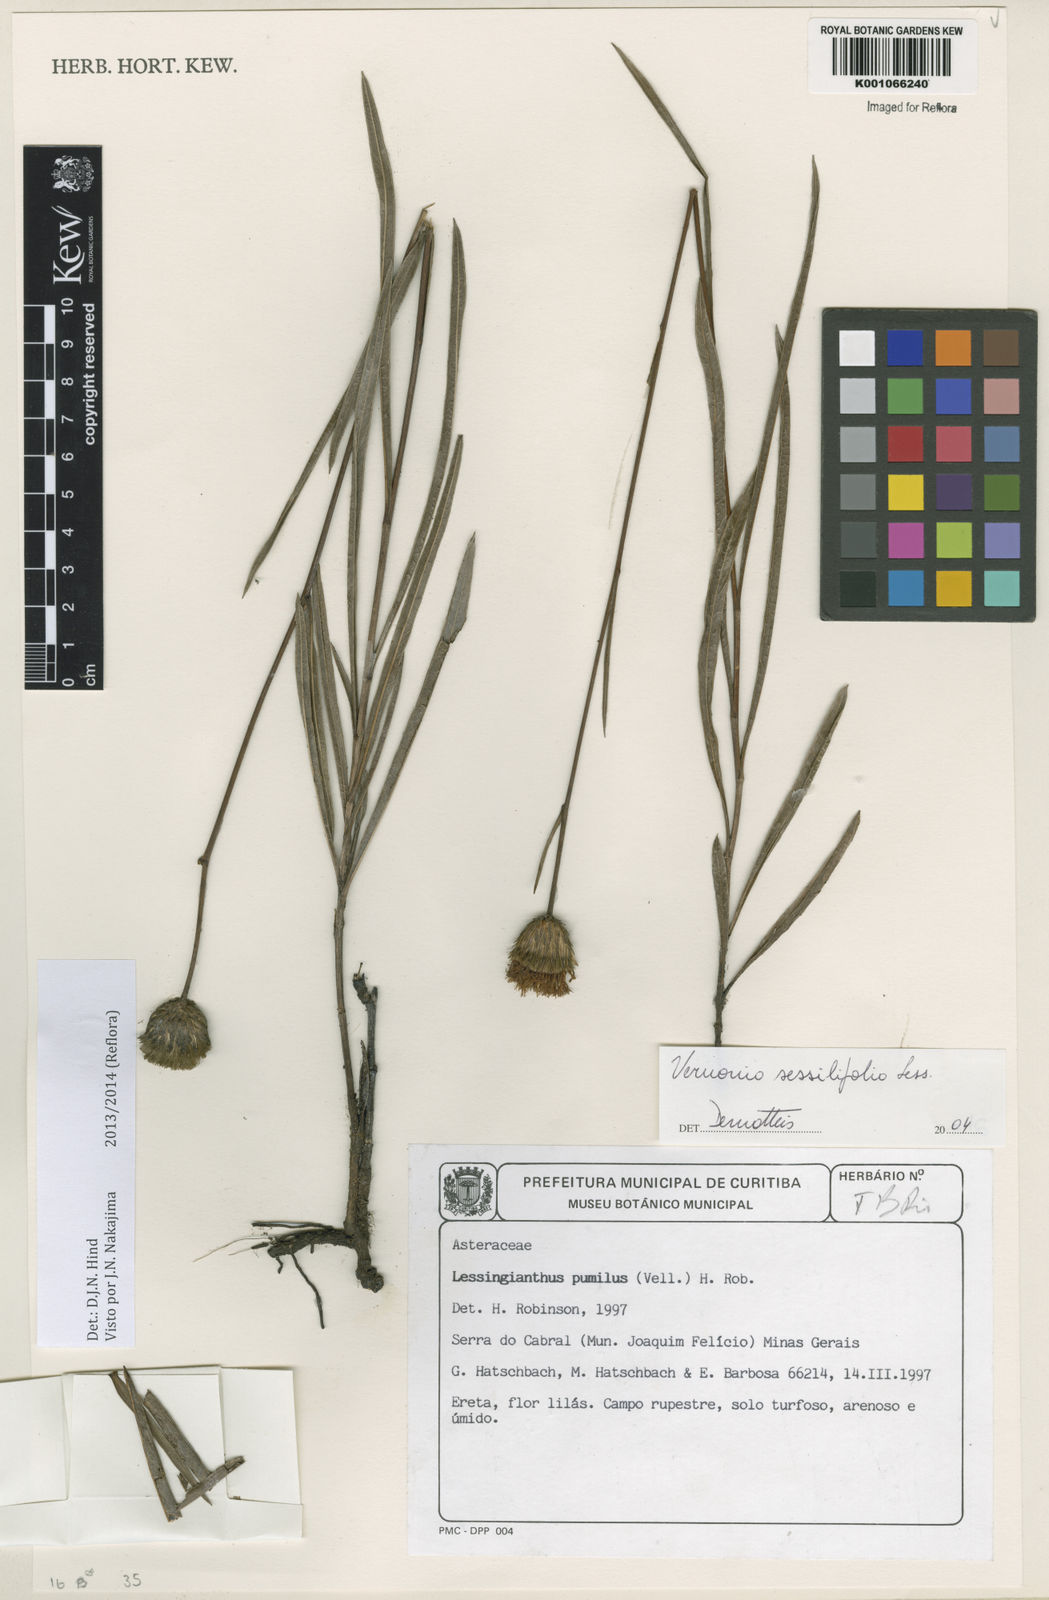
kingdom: Plantae
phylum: Tracheophyta
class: Magnoliopsida
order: Asterales
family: Asteraceae
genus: Lepidaploa
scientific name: Lepidaploa remotiflora
